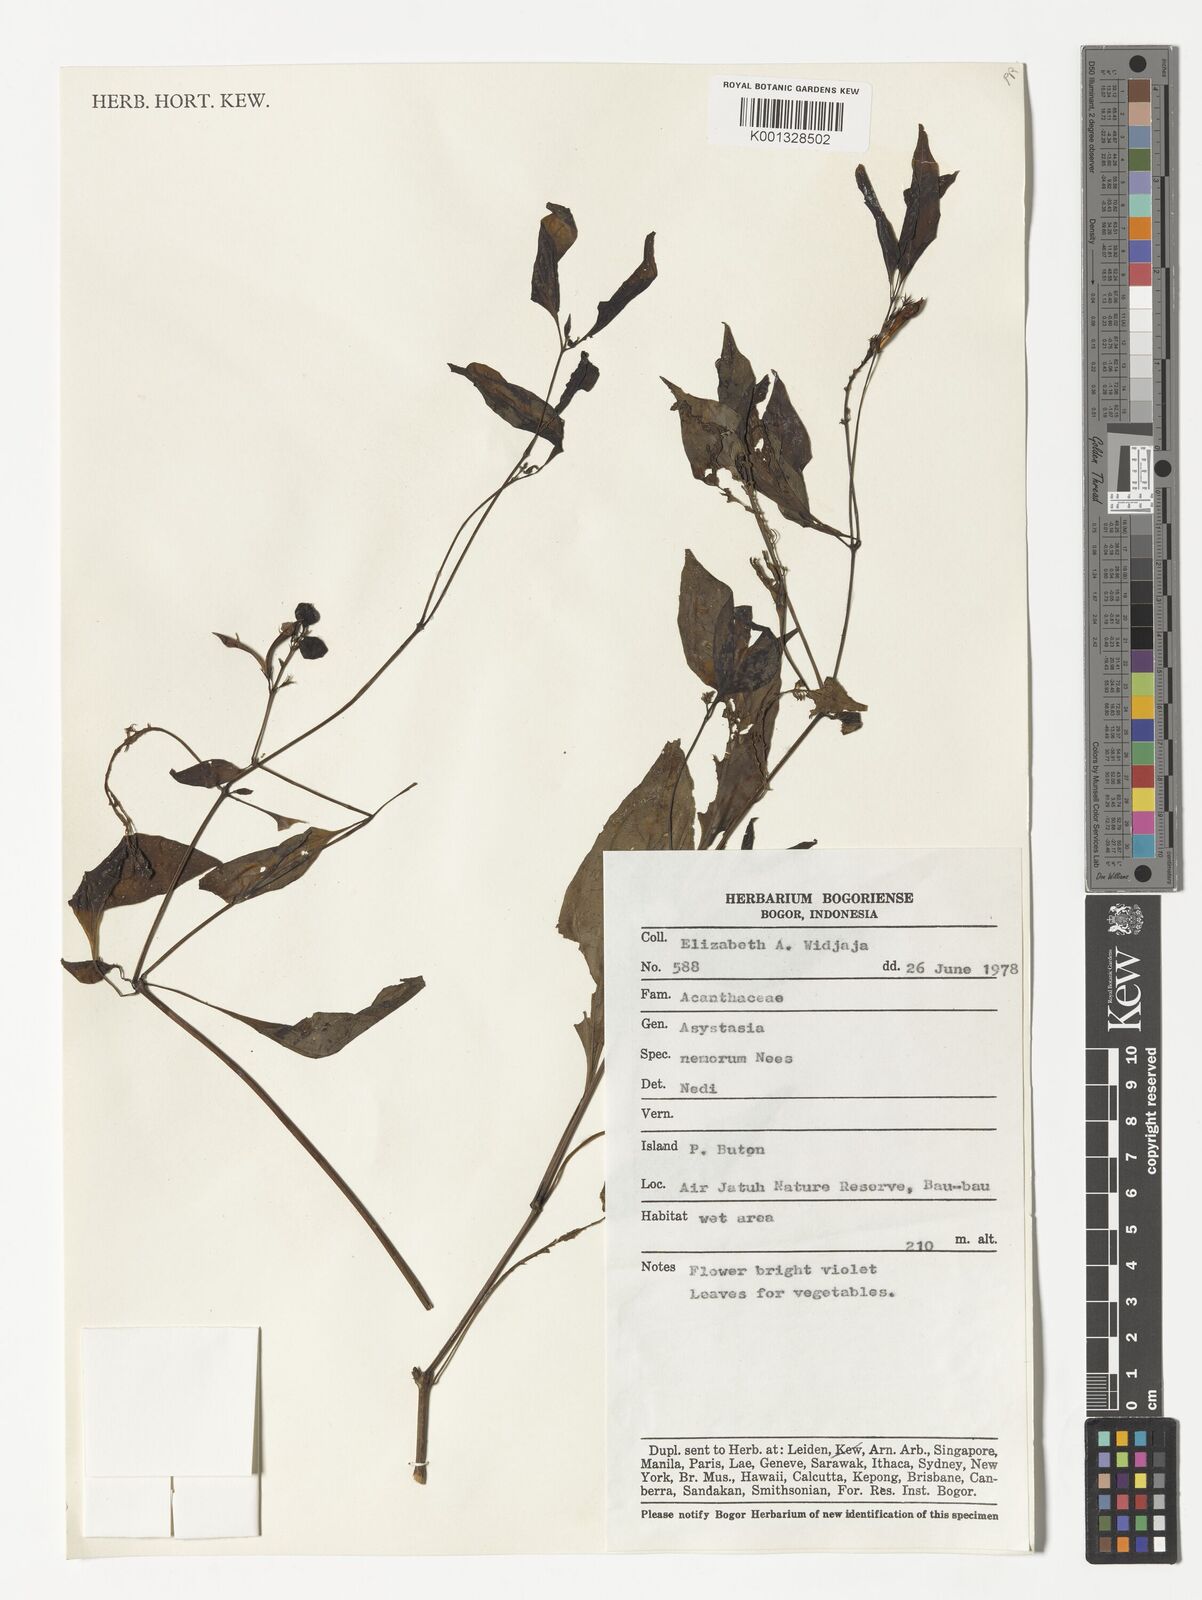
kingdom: Plantae
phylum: Tracheophyta
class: Magnoliopsida
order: Lamiales
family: Acanthaceae
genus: Asystasia
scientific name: Asystasia nemorum
